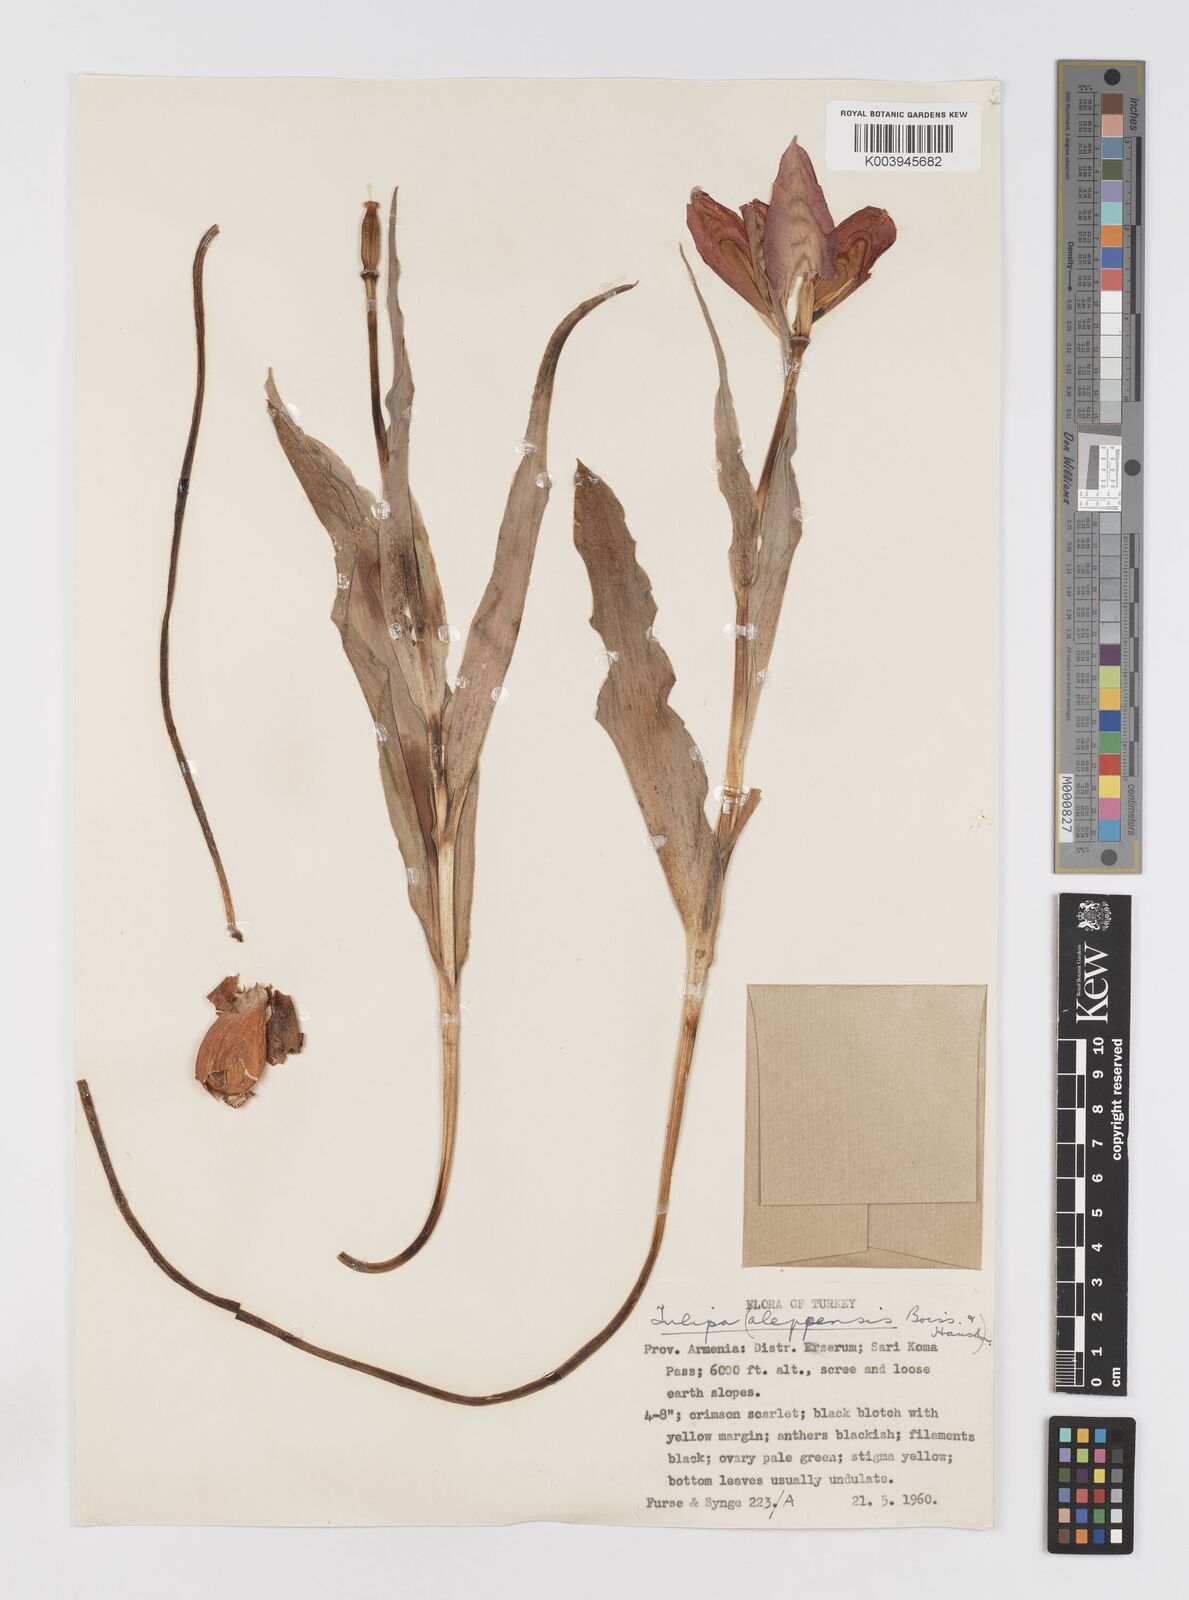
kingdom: Plantae
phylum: Tracheophyta
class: Liliopsida
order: Liliales
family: Liliaceae
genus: Tulipa
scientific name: Tulipa aleppensis
